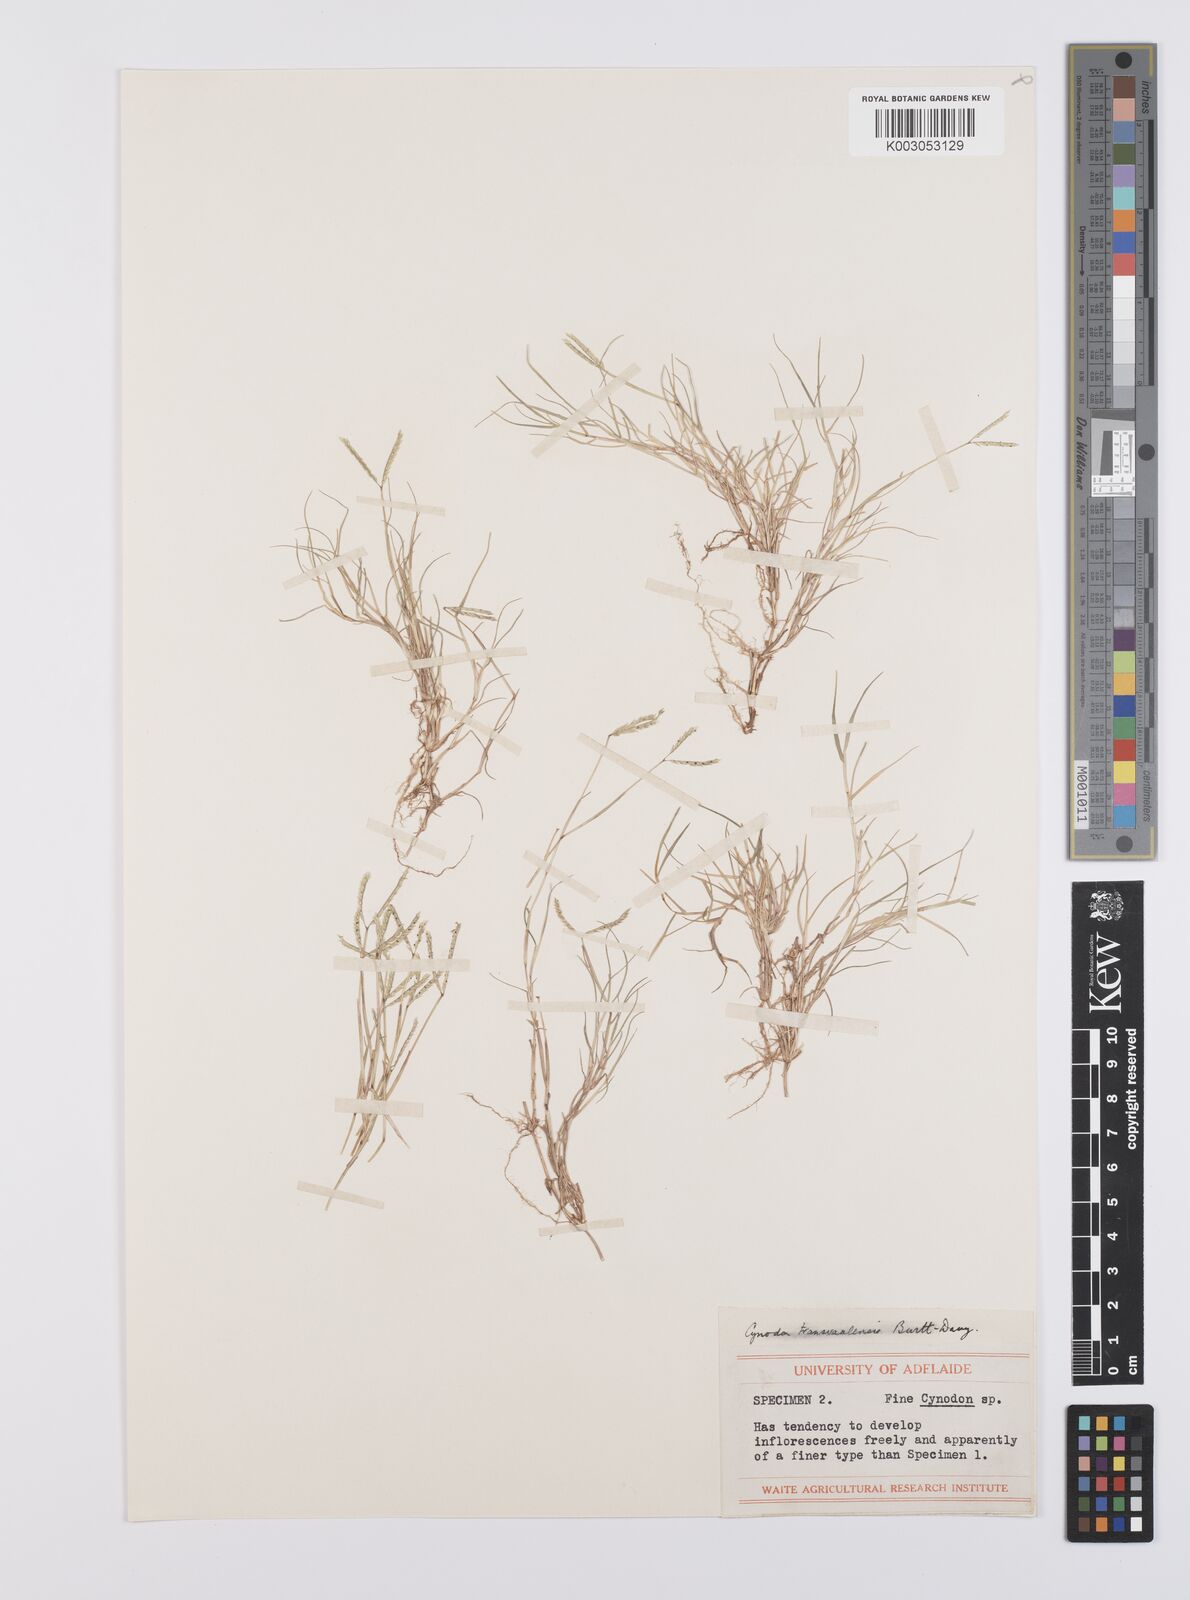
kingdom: Plantae
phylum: Tracheophyta
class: Liliopsida
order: Poales
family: Poaceae
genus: Cynodon
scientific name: Cynodon transvaalensis
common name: African bermuda grass
